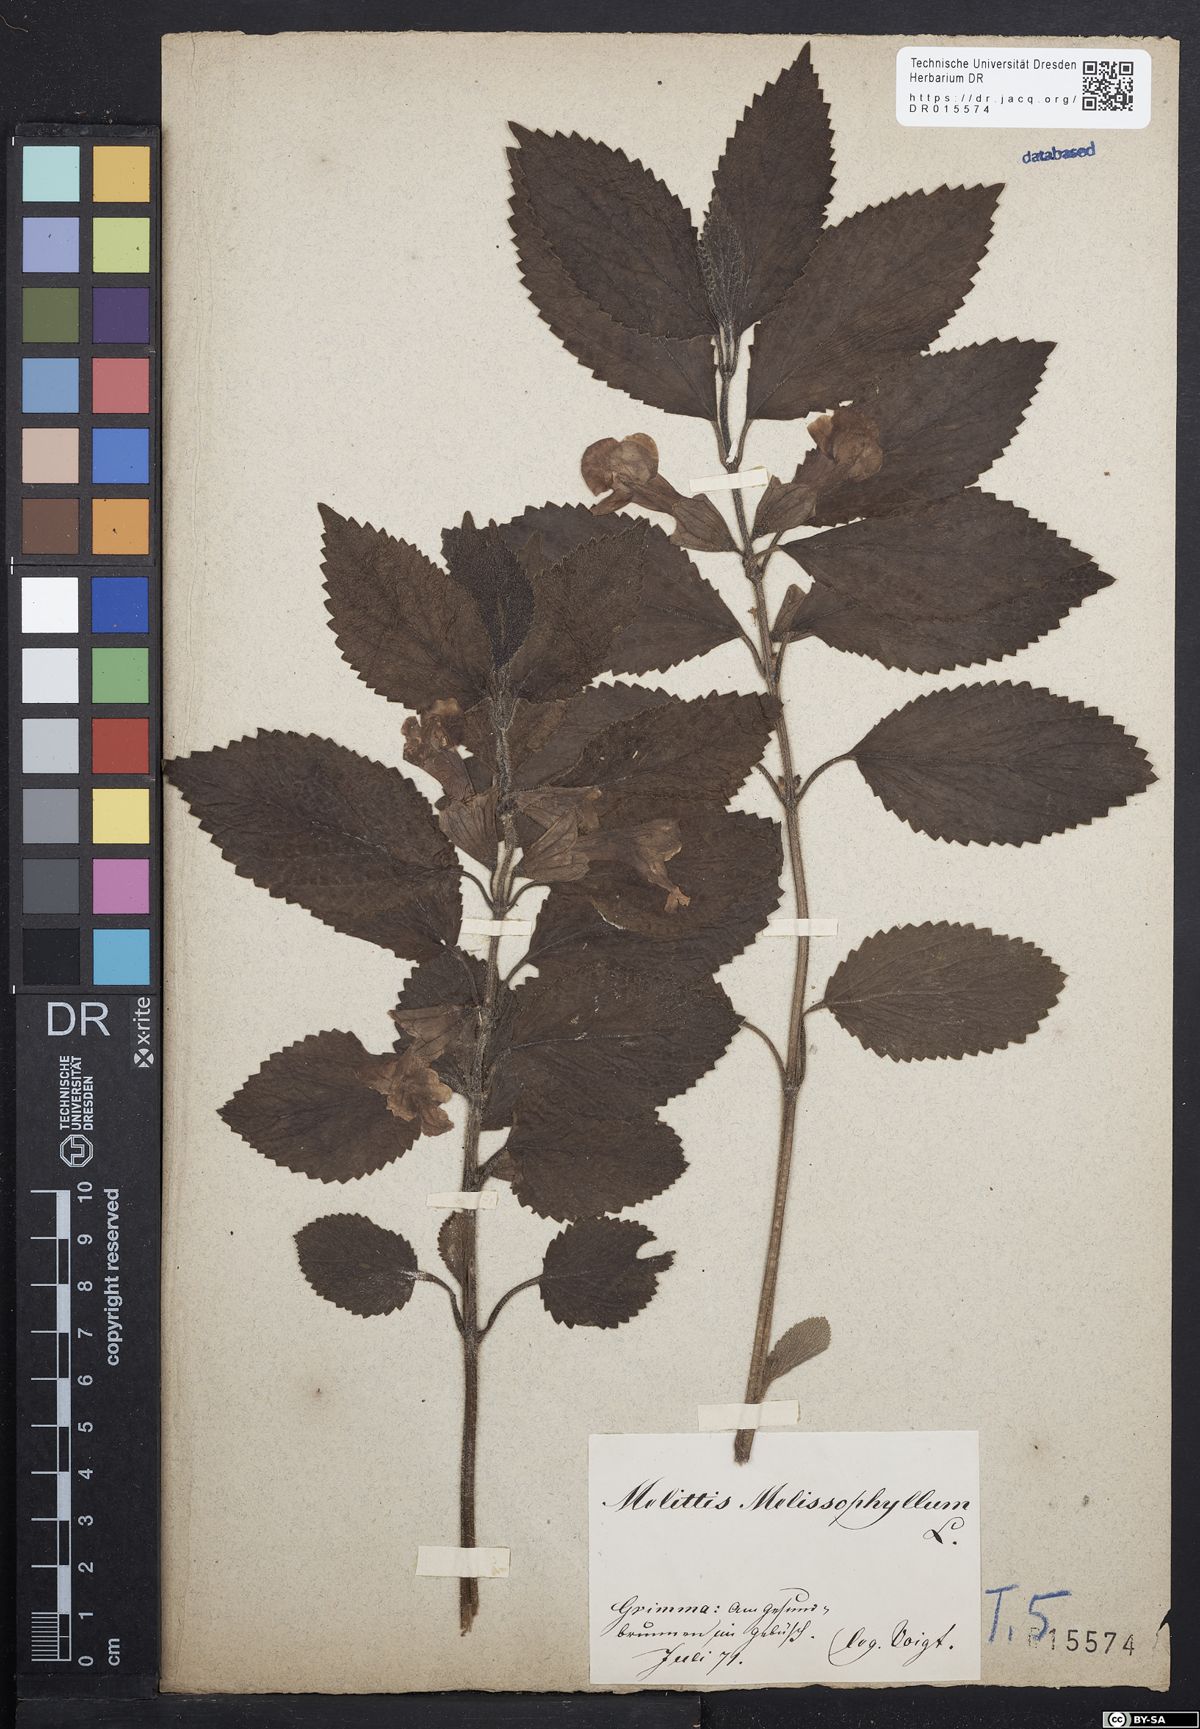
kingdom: Plantae
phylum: Tracheophyta
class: Magnoliopsida
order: Lamiales
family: Lamiaceae
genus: Melittis
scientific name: Melittis melissophyllum
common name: Bastard balm
